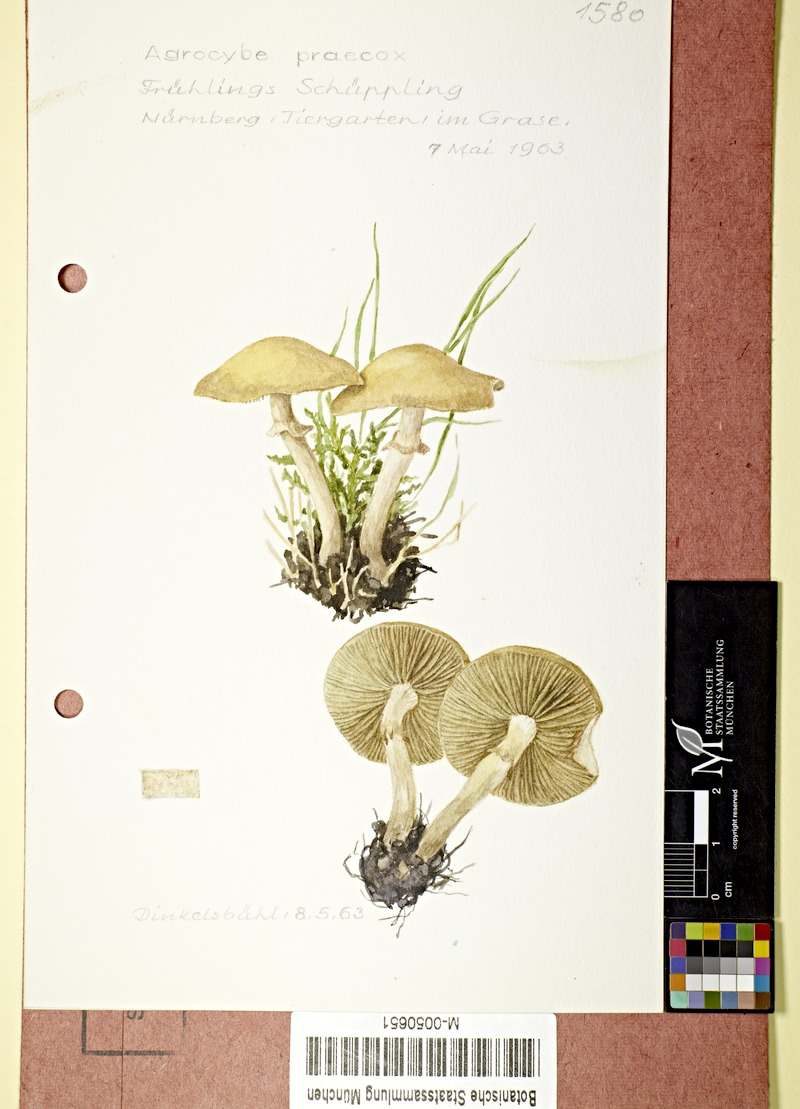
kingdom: Fungi
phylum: Basidiomycota
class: Agaricomycetes
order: Agaricales
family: Strophariaceae
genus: Agrocybe
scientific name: Agrocybe praecox
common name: Spring fieldcap
